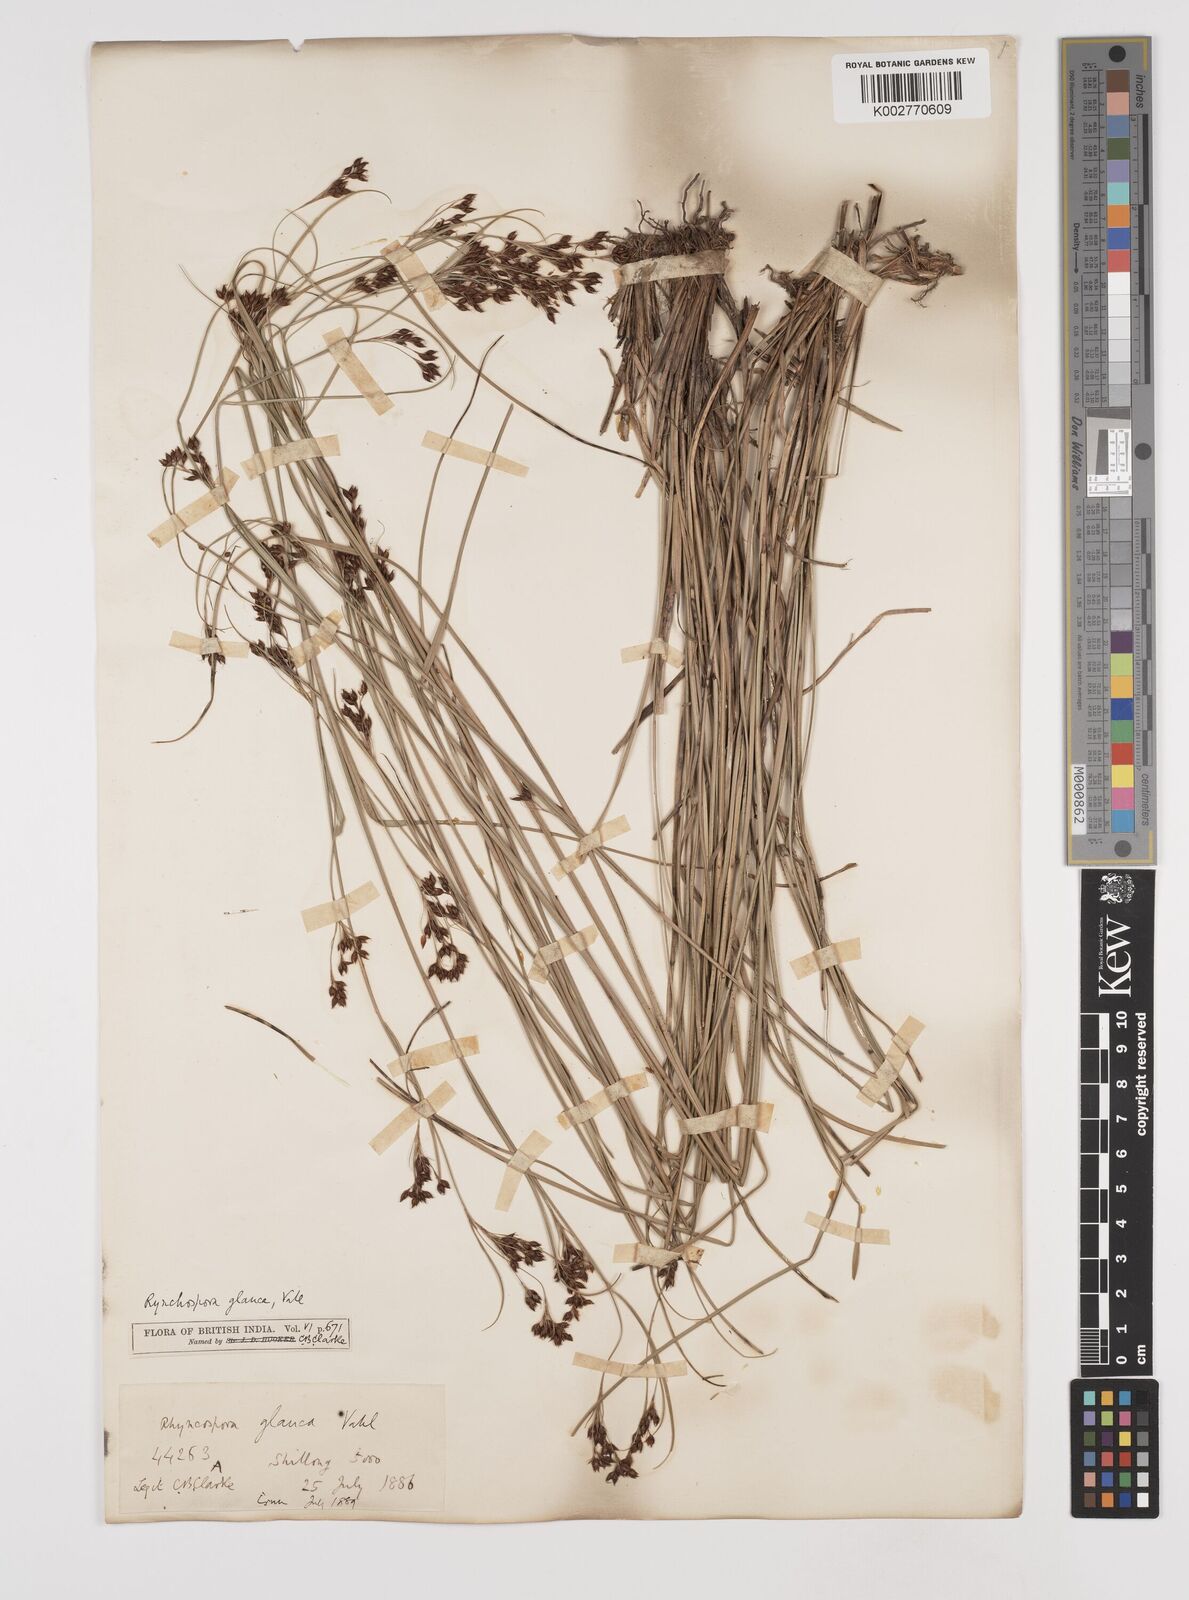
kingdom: Plantae
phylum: Tracheophyta
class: Liliopsida
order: Poales
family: Cyperaceae
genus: Rhynchospora
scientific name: Rhynchospora rugosa
